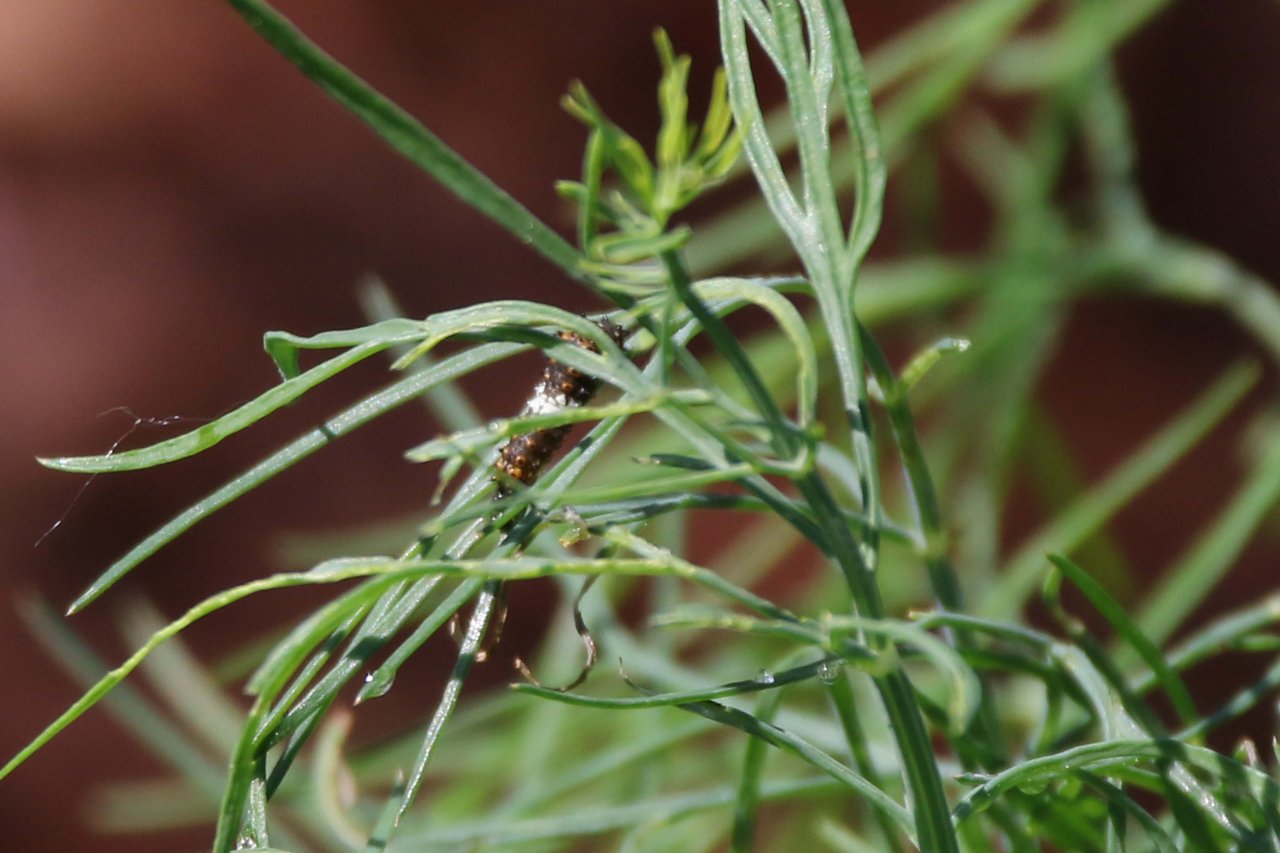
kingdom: Animalia
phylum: Arthropoda
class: Insecta
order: Lepidoptera
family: Papilionidae
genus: Papilio
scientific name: Papilio polyxenes
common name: Black Swallowtail
